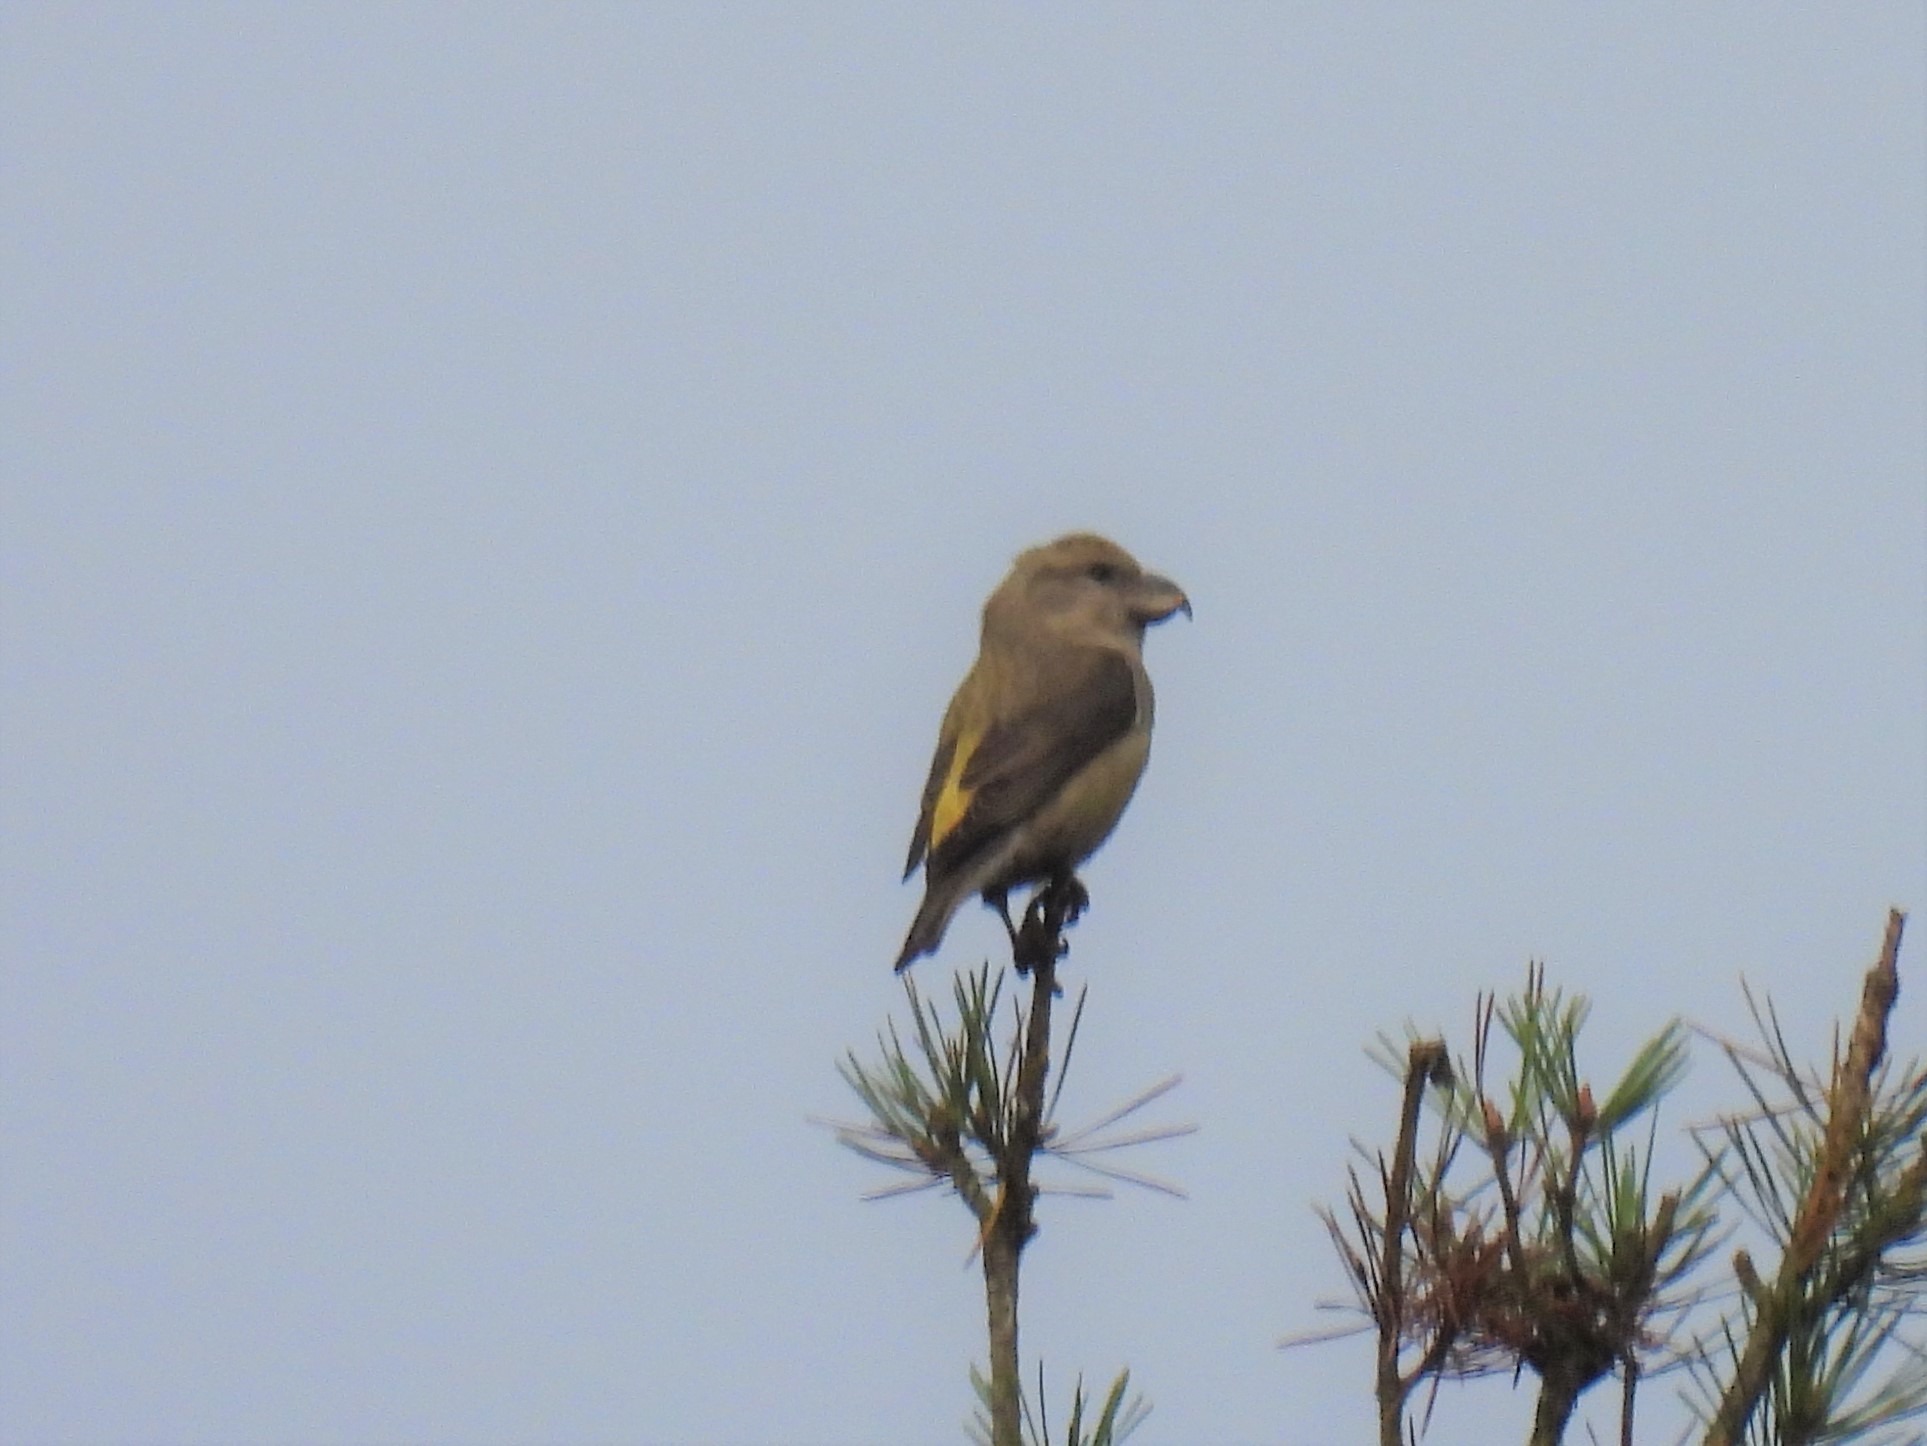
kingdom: Animalia
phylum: Chordata
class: Aves
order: Passeriformes
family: Fringillidae
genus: Loxia
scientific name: Loxia pytyopsittacus
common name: Stor korsnæb
